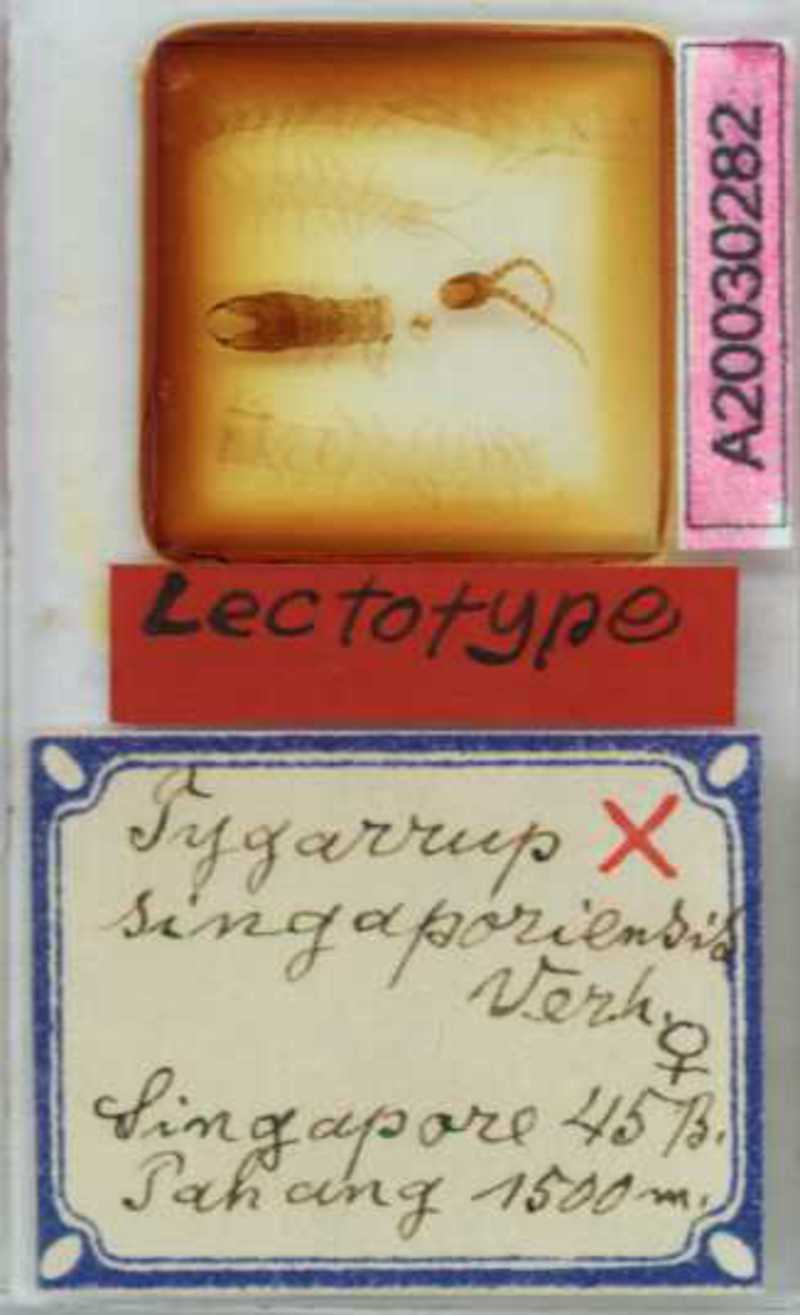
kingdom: Animalia
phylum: Arthropoda
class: Chilopoda
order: Geophilomorpha
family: Mecistocephalidae
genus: Tygarrup
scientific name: Tygarrup singaporiensis
